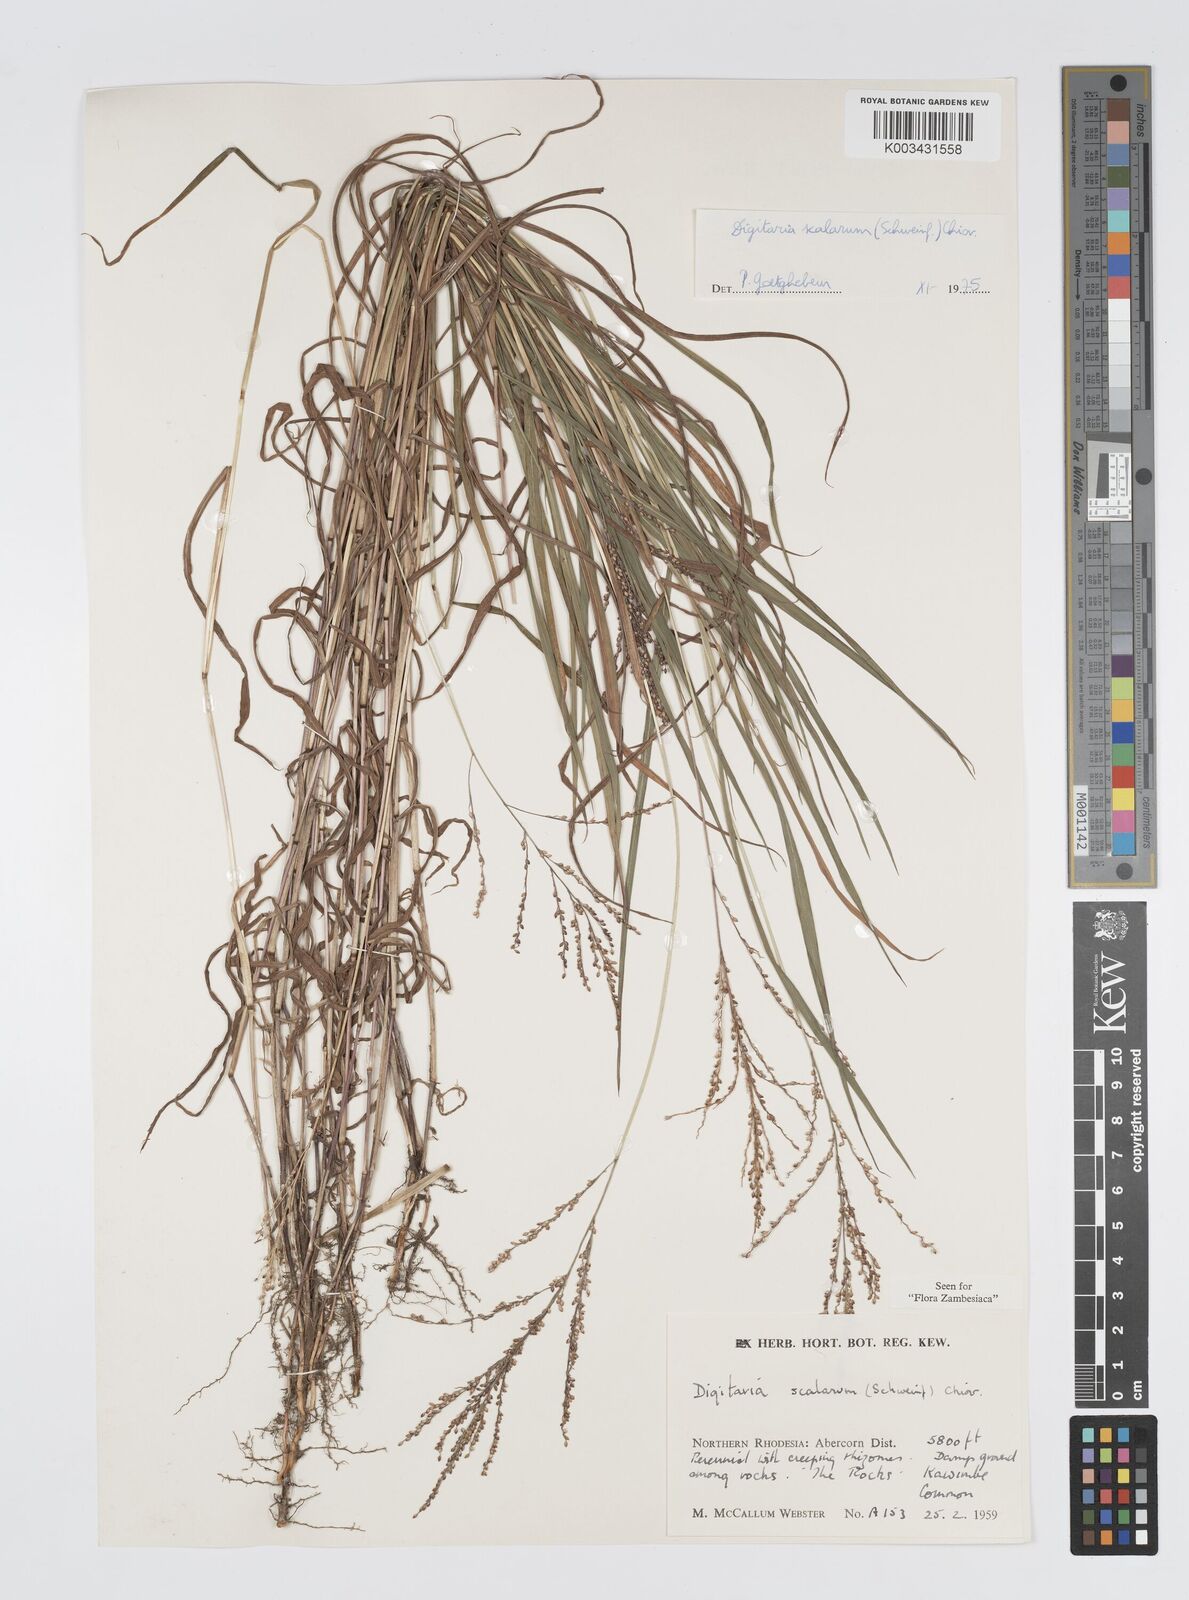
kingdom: Plantae
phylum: Tracheophyta
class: Liliopsida
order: Poales
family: Poaceae
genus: Digitaria
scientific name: Digitaria abyssinica
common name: African couchgrass
